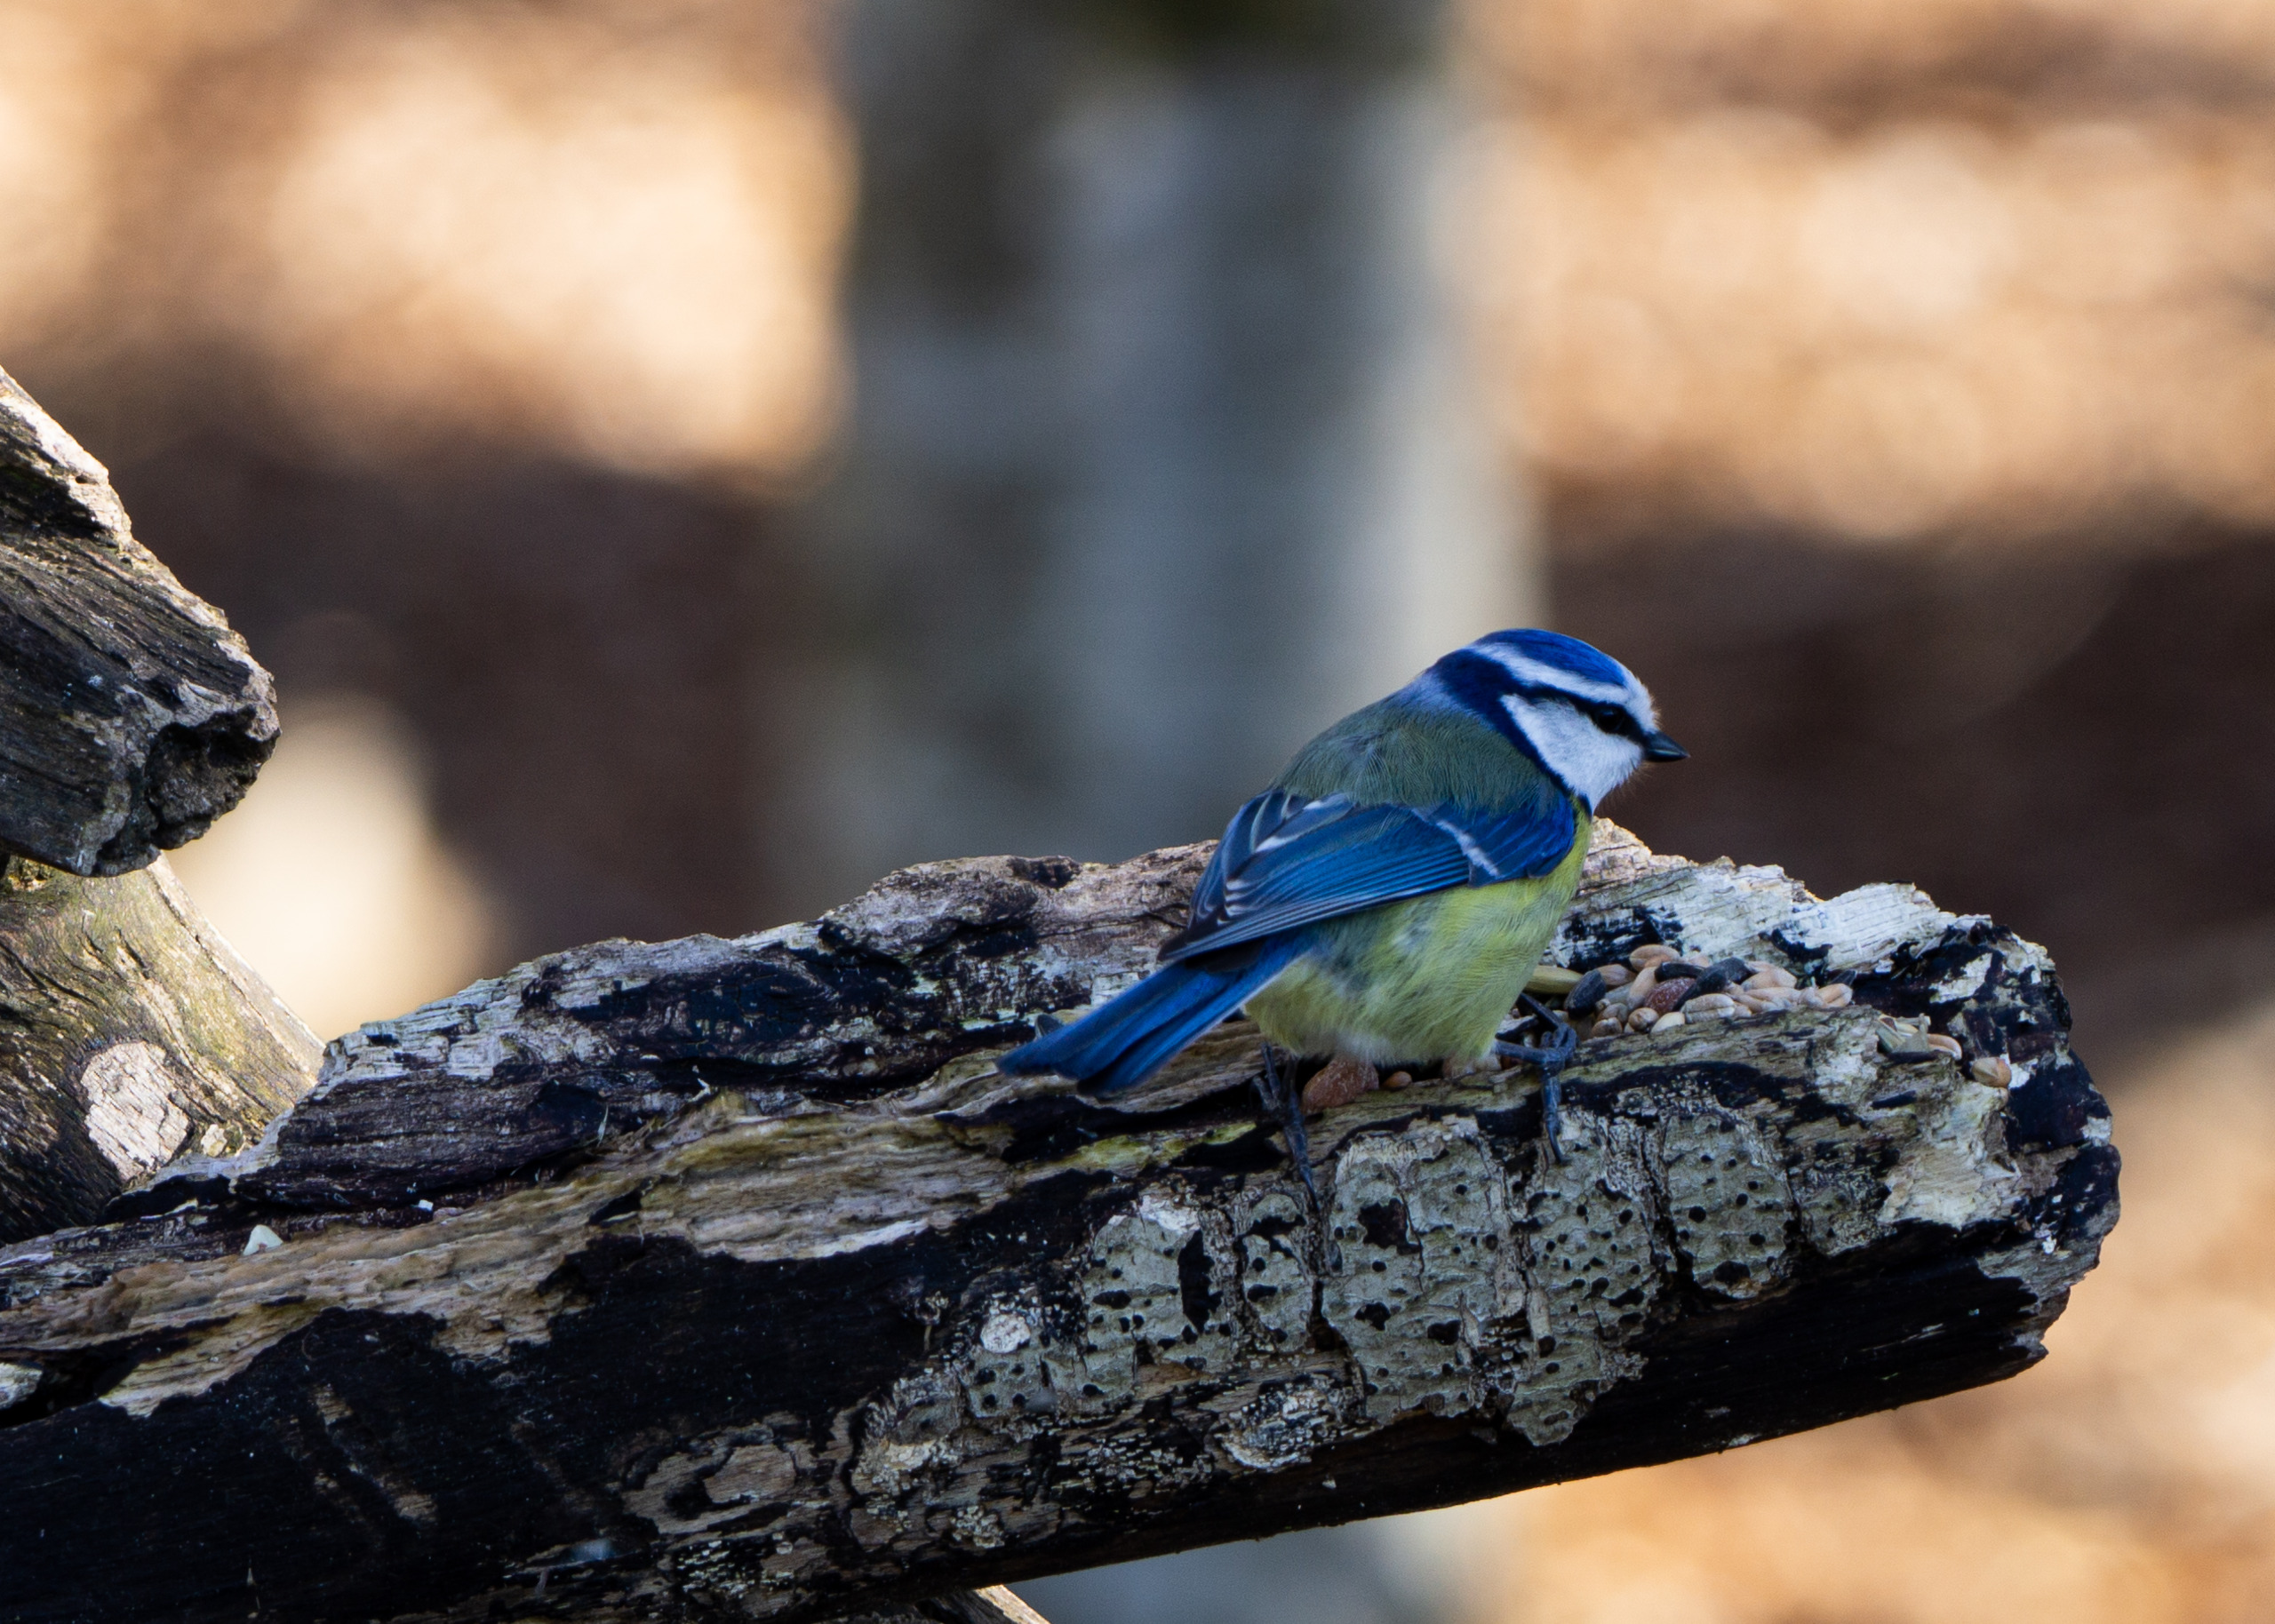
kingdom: Animalia
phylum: Chordata
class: Aves
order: Passeriformes
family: Paridae
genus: Cyanistes
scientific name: Cyanistes caeruleus
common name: Blåmejse
